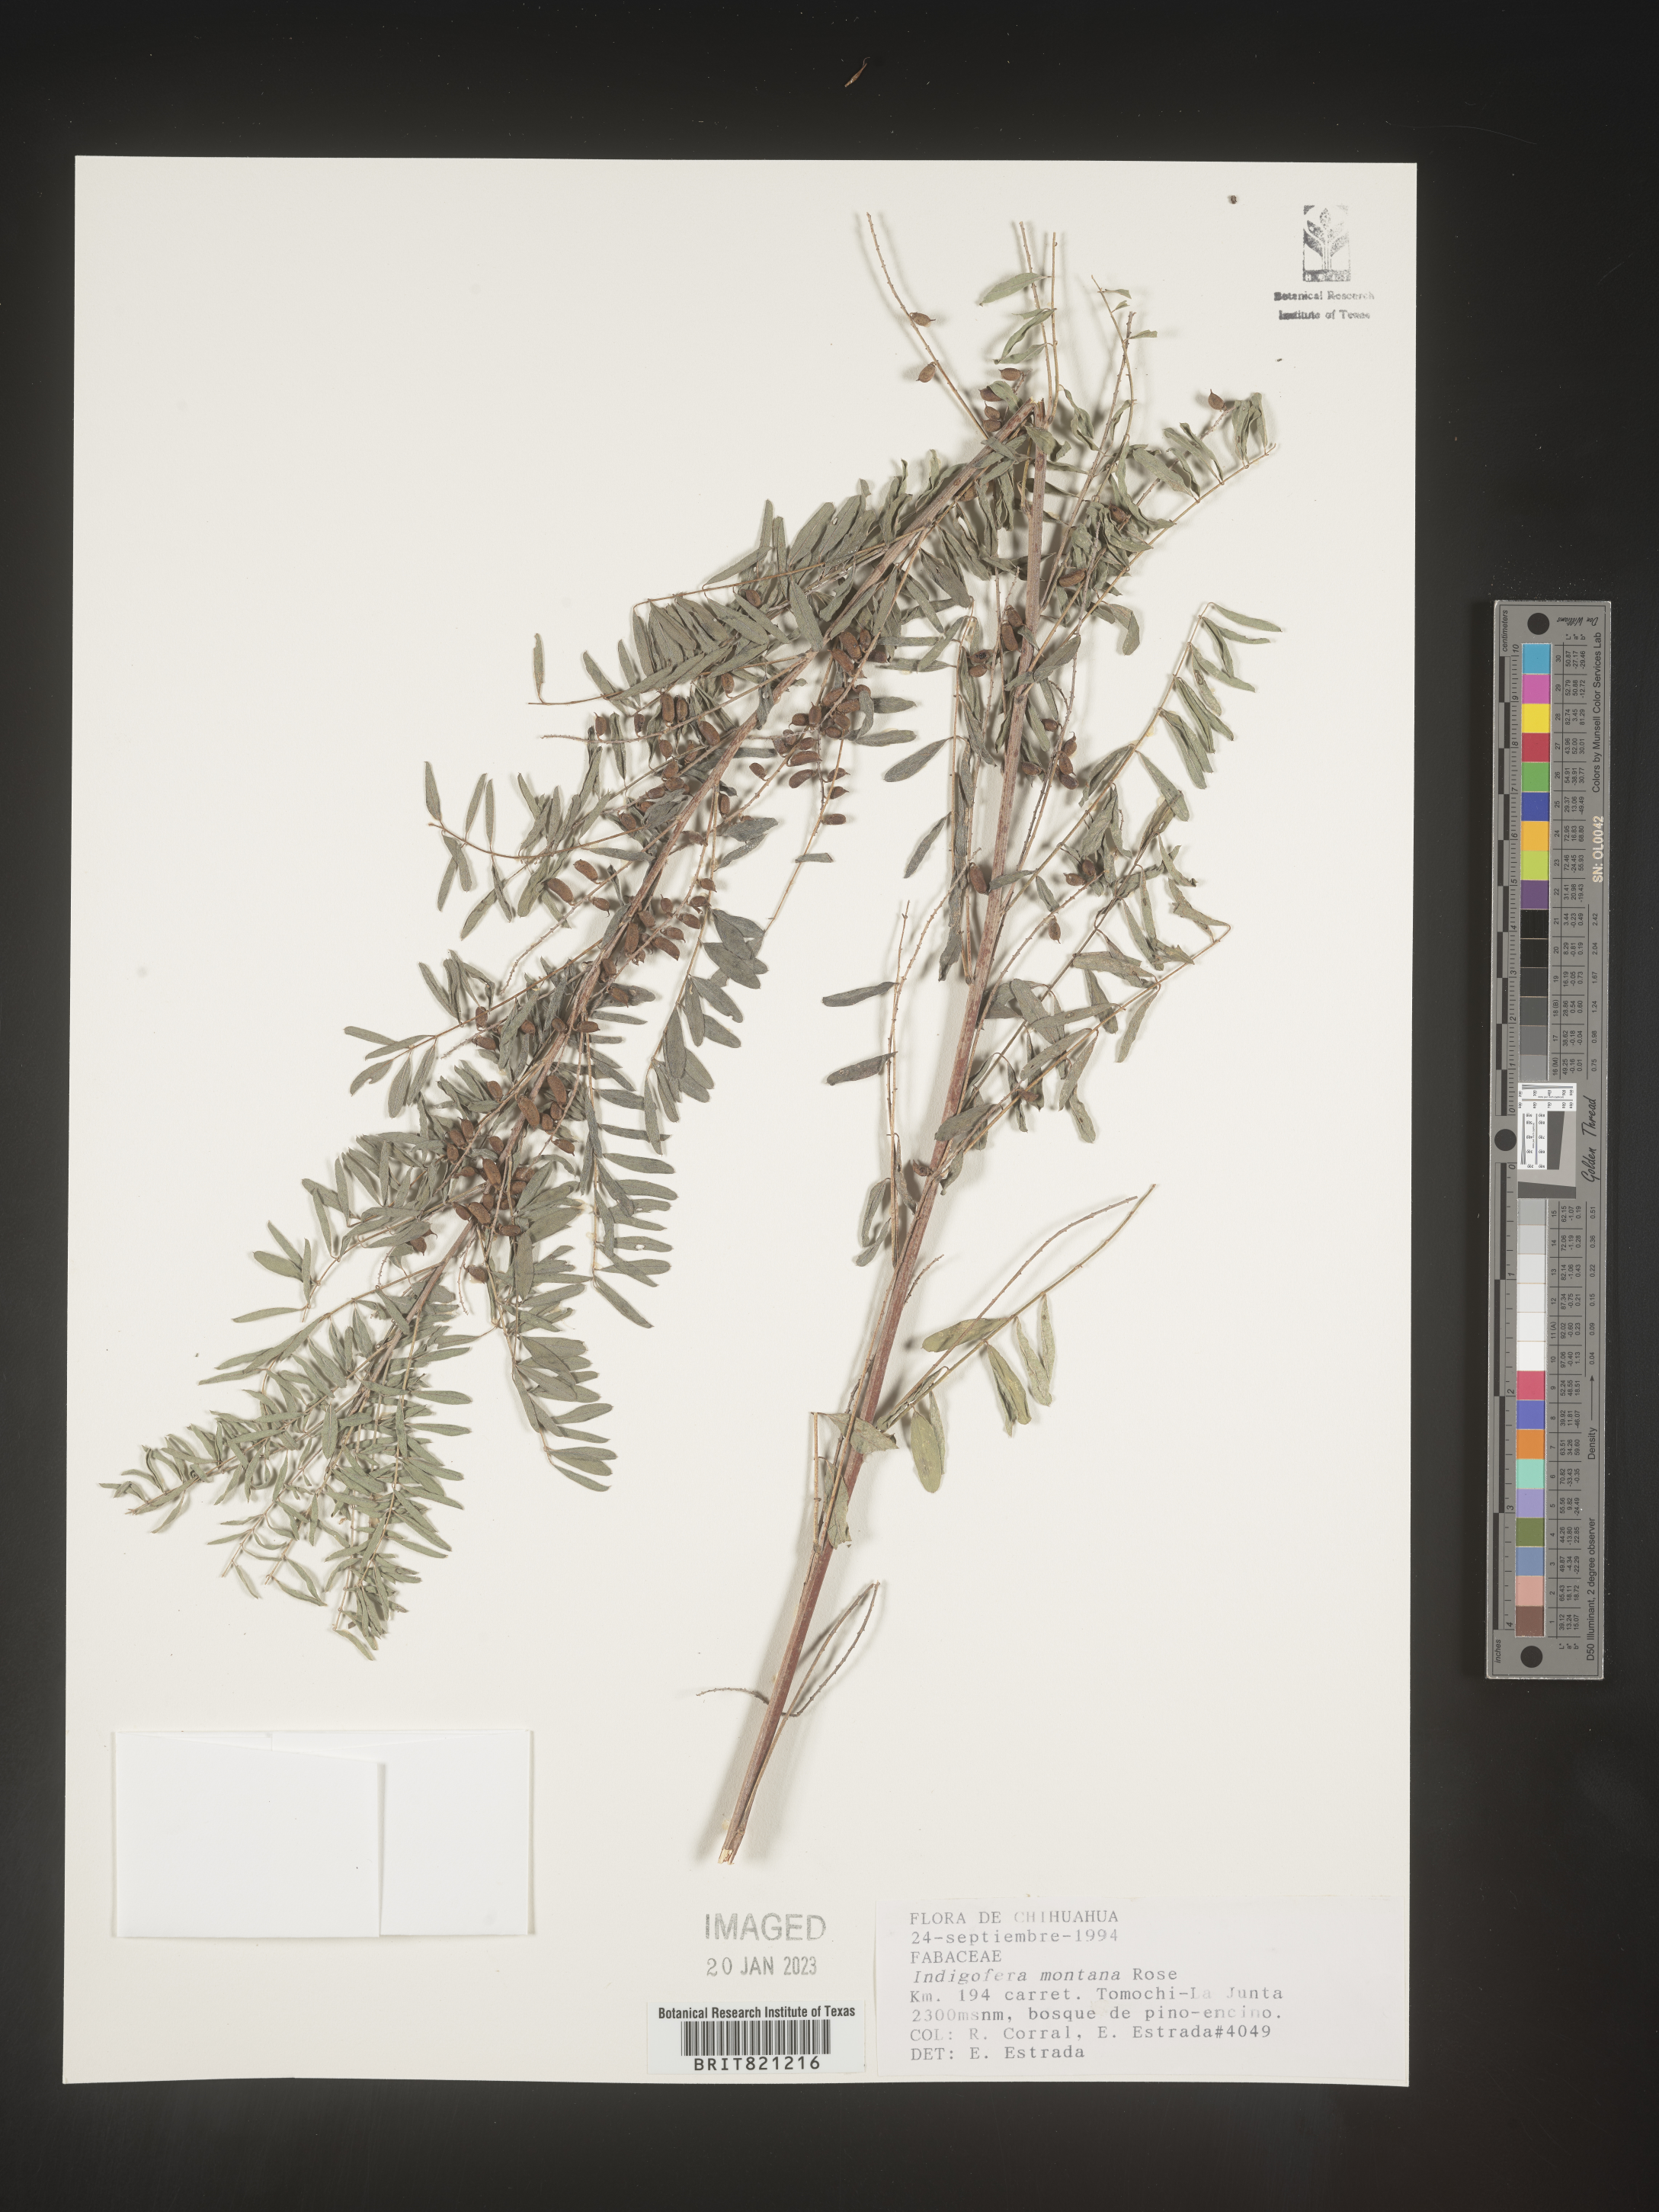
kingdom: Plantae
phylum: Tracheophyta
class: Magnoliopsida
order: Fabales
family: Fabaceae
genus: Indigofera
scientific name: Indigofera
